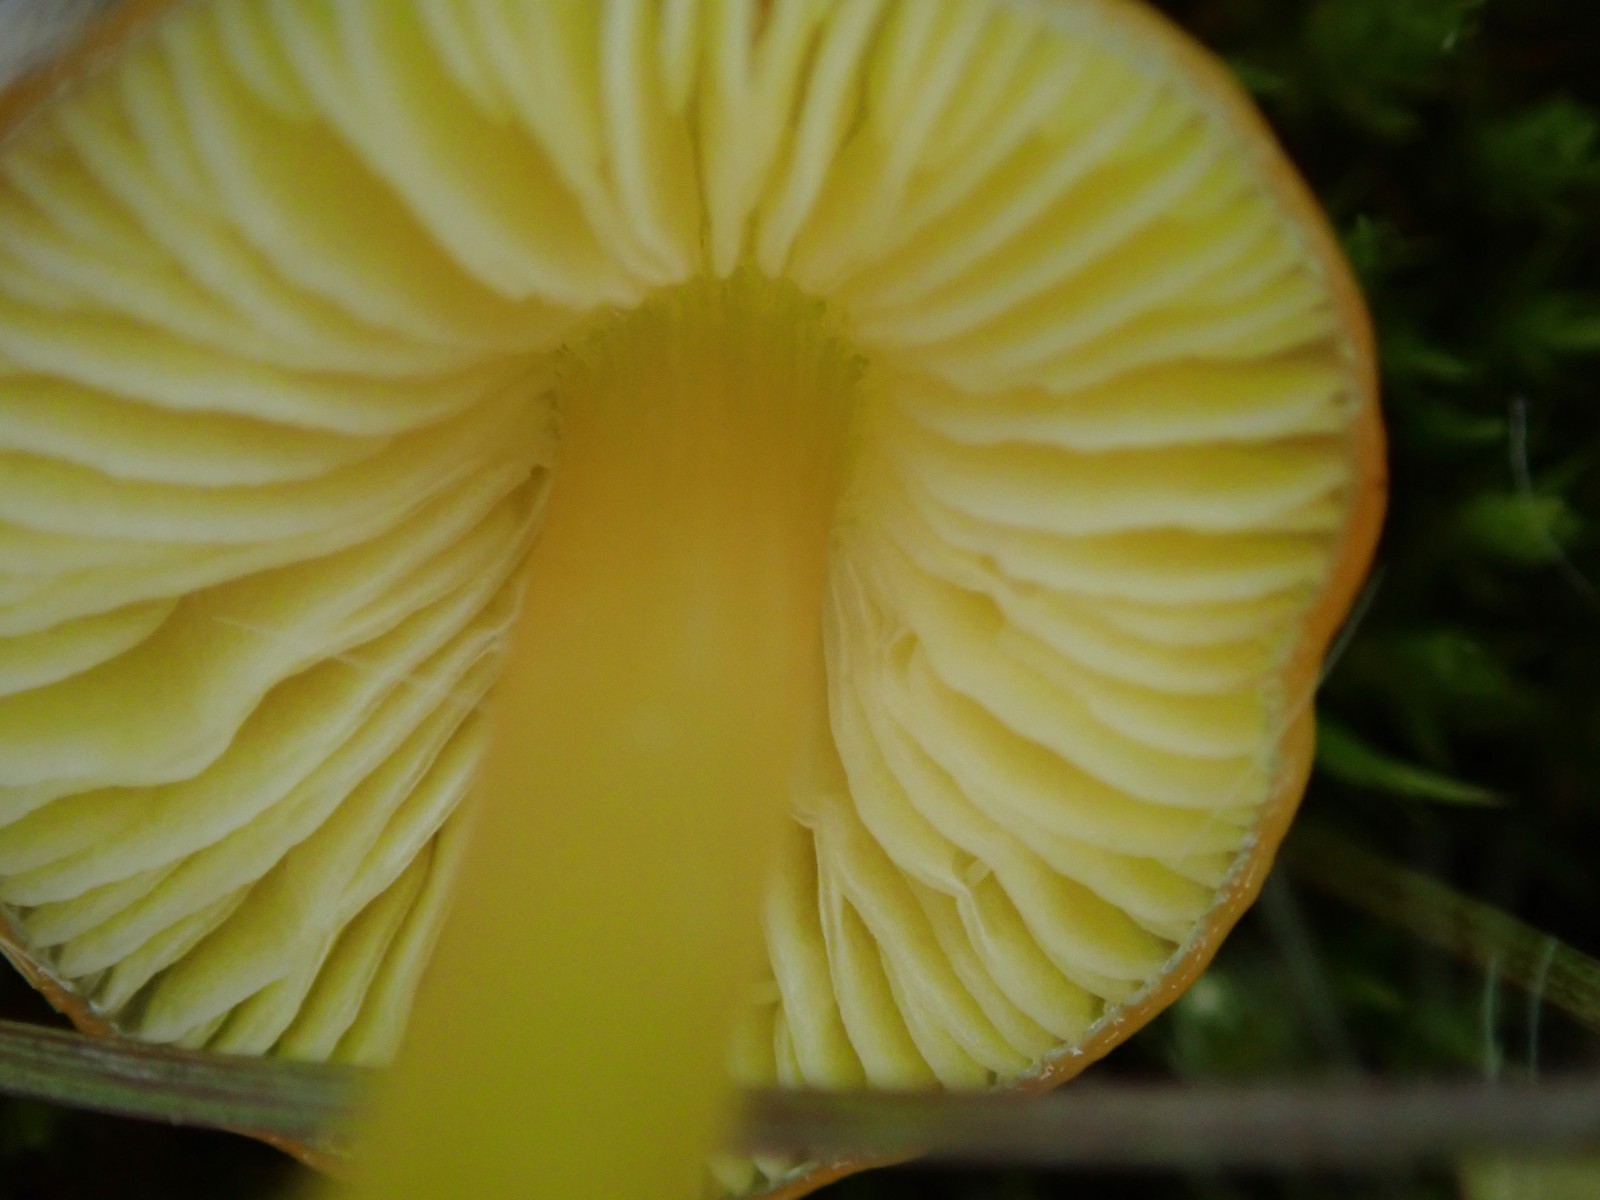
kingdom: Fungi
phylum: Basidiomycota
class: Agaricomycetes
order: Agaricales
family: Hygrophoraceae
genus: Hygrocybe
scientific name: Hygrocybe
